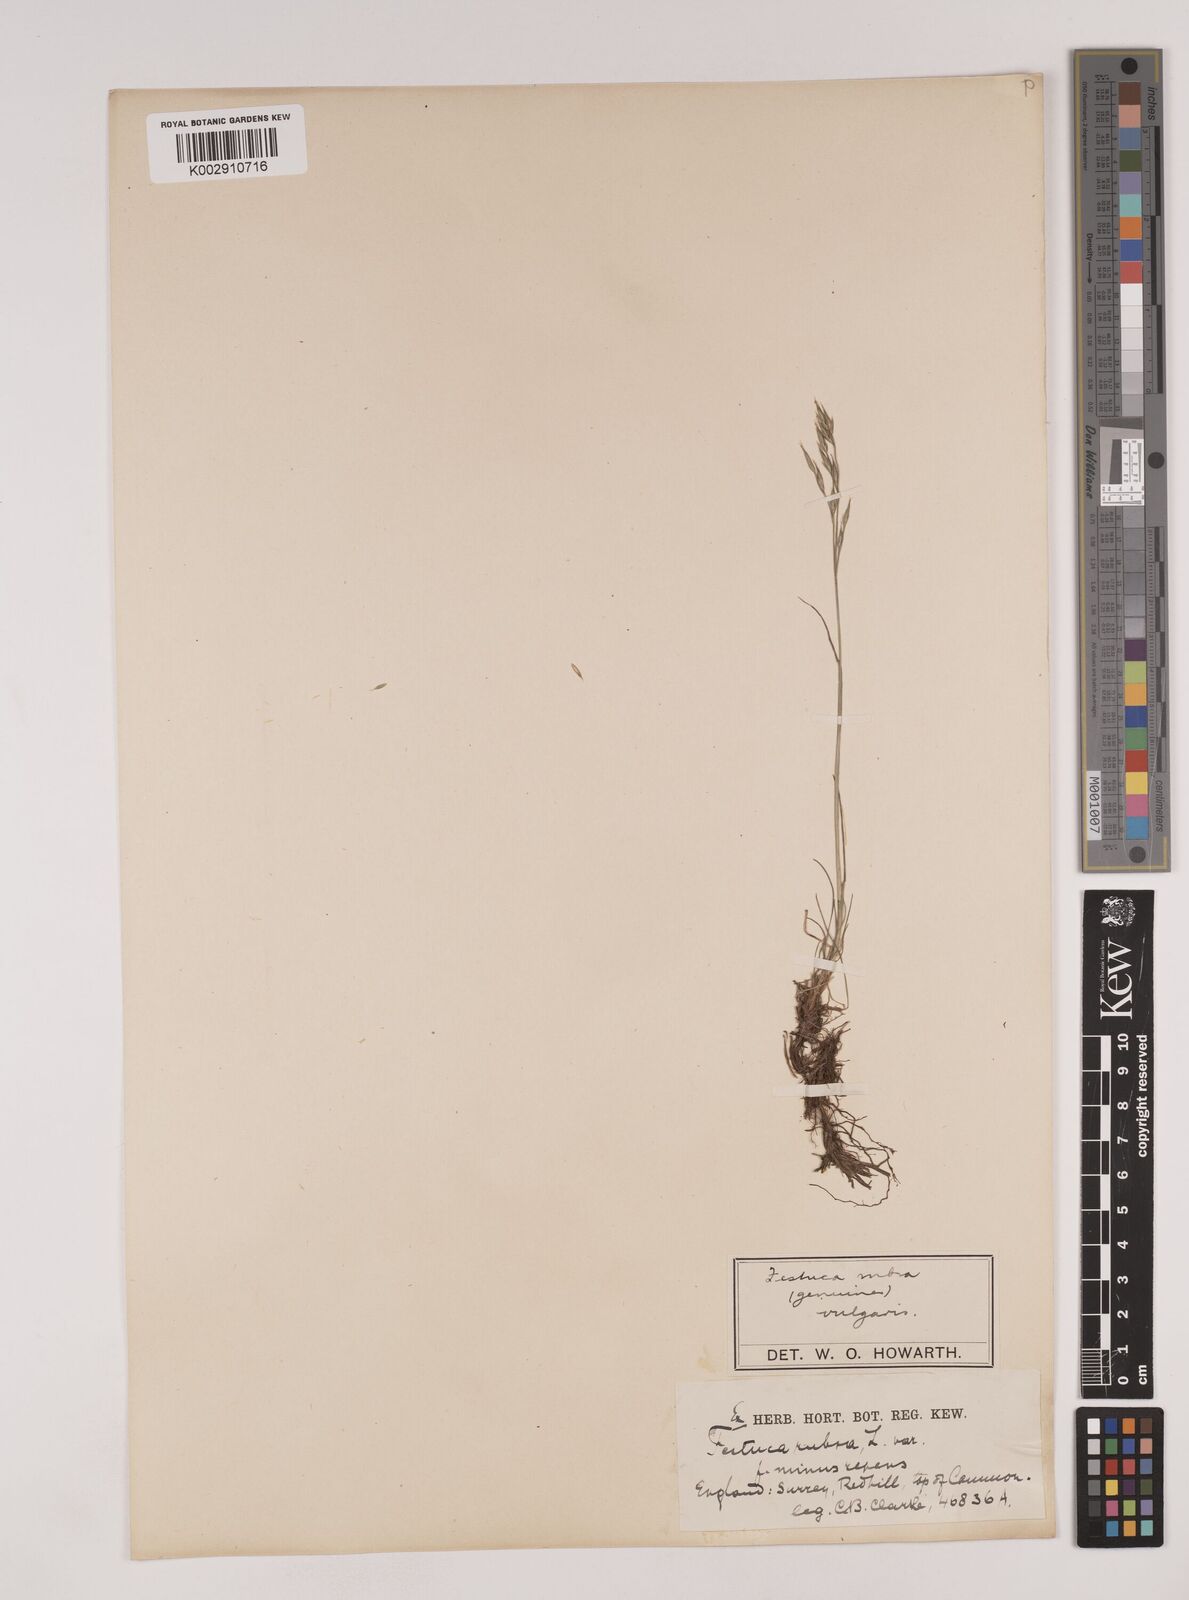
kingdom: Plantae
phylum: Tracheophyta
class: Liliopsida
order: Poales
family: Poaceae
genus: Festuca
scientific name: Festuca rubra
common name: Red fescue
